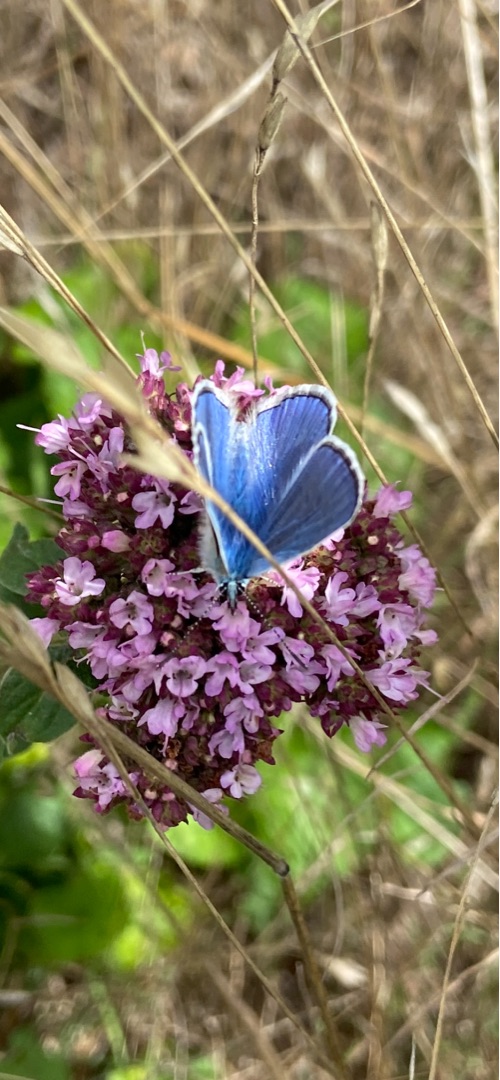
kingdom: Animalia
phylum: Arthropoda
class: Insecta
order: Lepidoptera
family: Lycaenidae
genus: Polyommatus
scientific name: Polyommatus icarus
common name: Almindelig blåfugl
